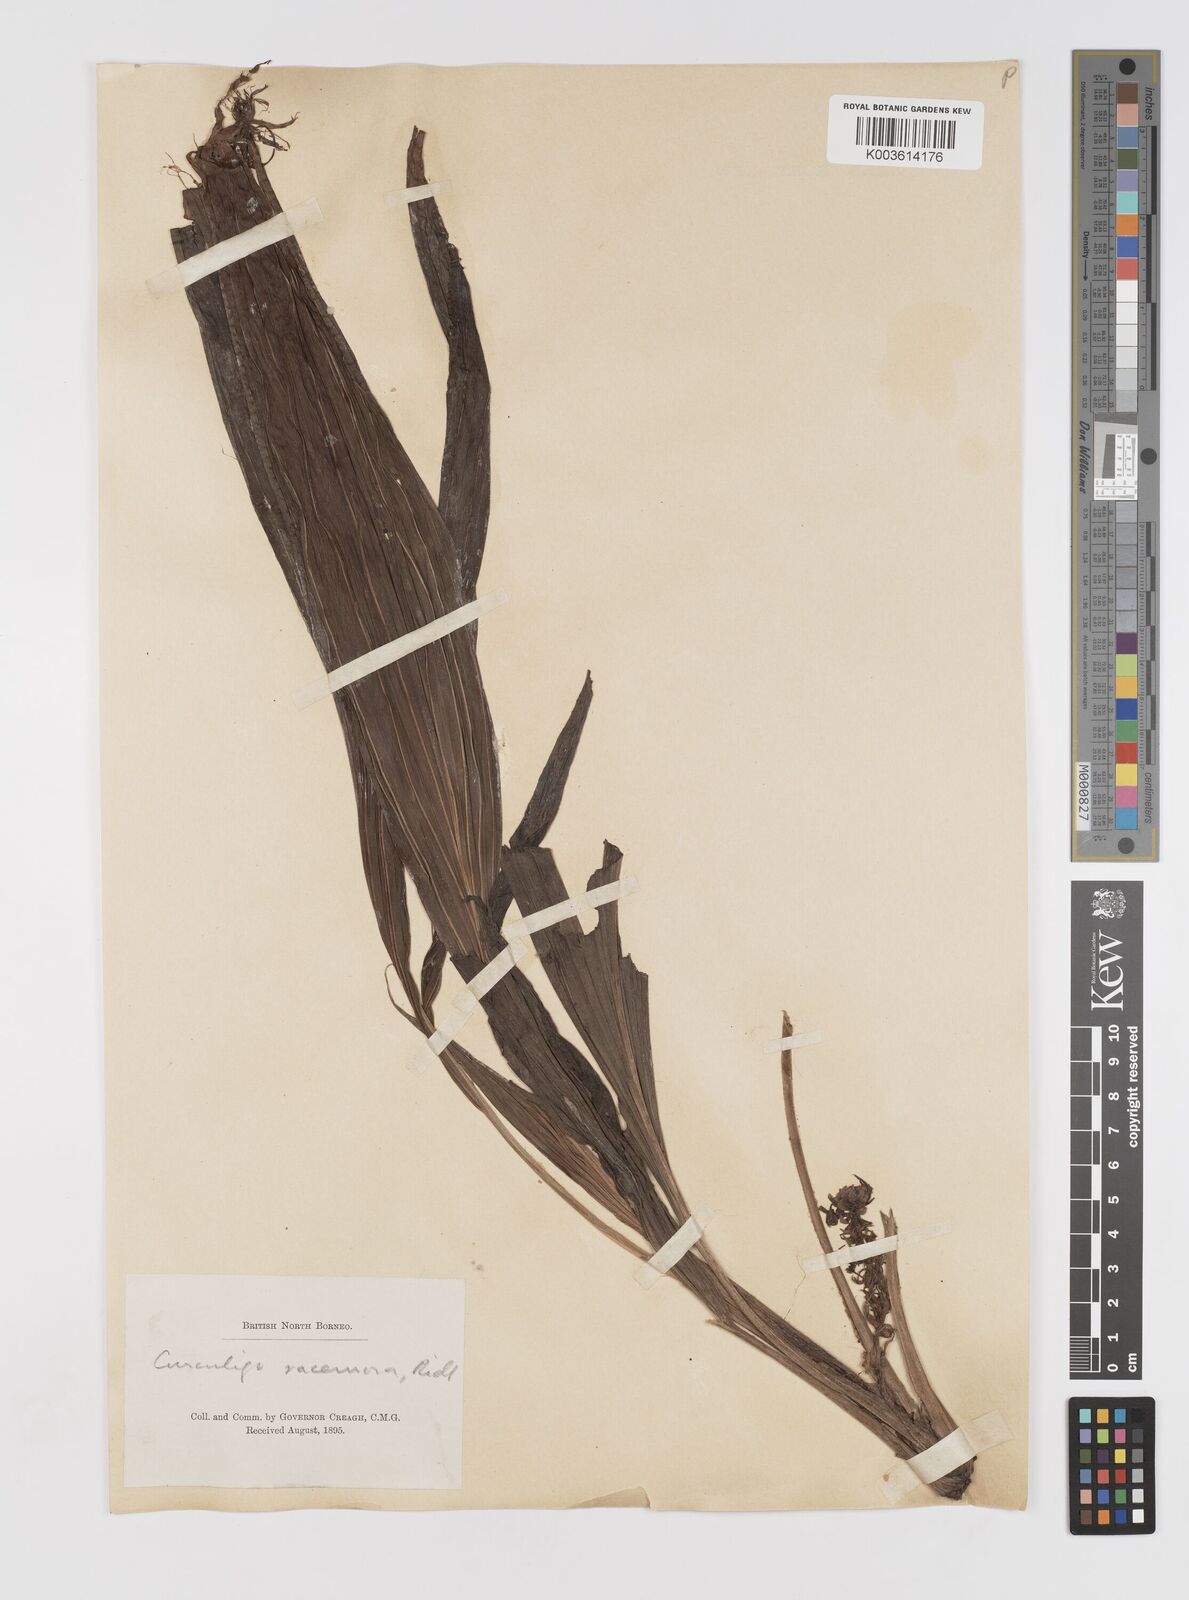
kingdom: Plantae
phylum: Tracheophyta
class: Liliopsida
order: Asparagales
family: Hypoxidaceae
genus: Curculigo
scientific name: Curculigo racemosa
